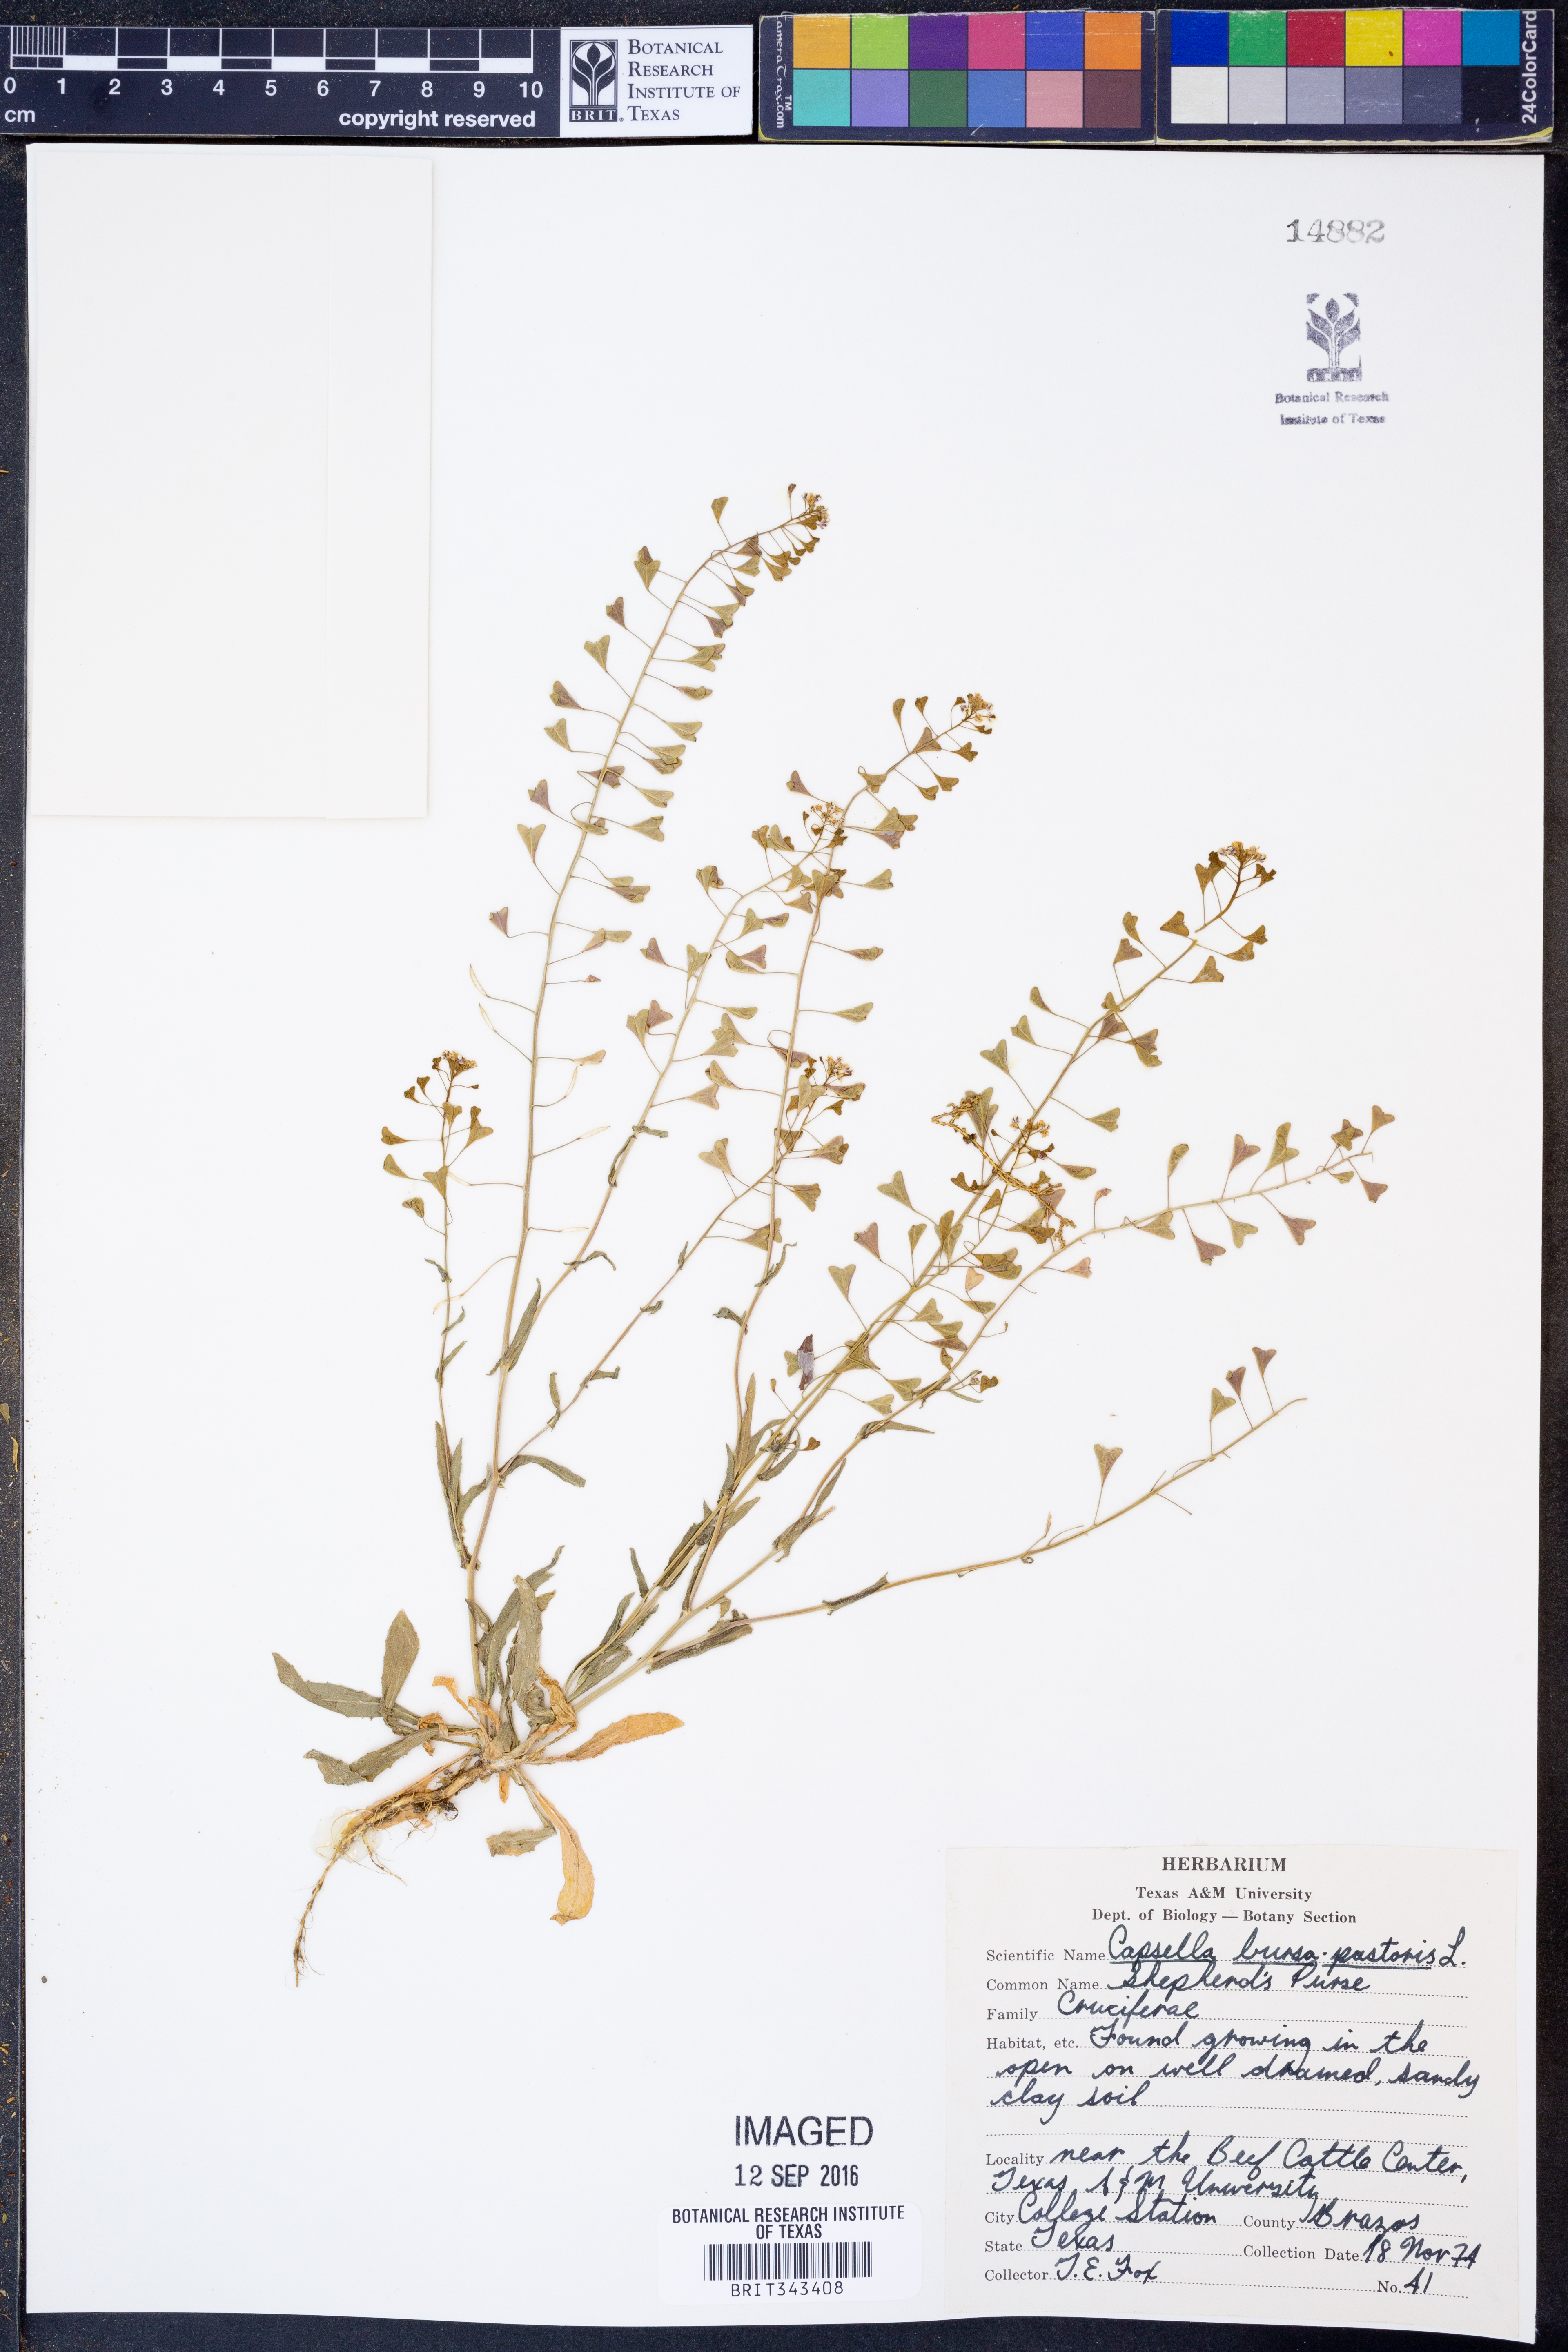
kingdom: Plantae
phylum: Tracheophyta
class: Magnoliopsida
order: Brassicales
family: Brassicaceae
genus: Capsella
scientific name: Capsella bursa-pastoris
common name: Shepherd's purse
